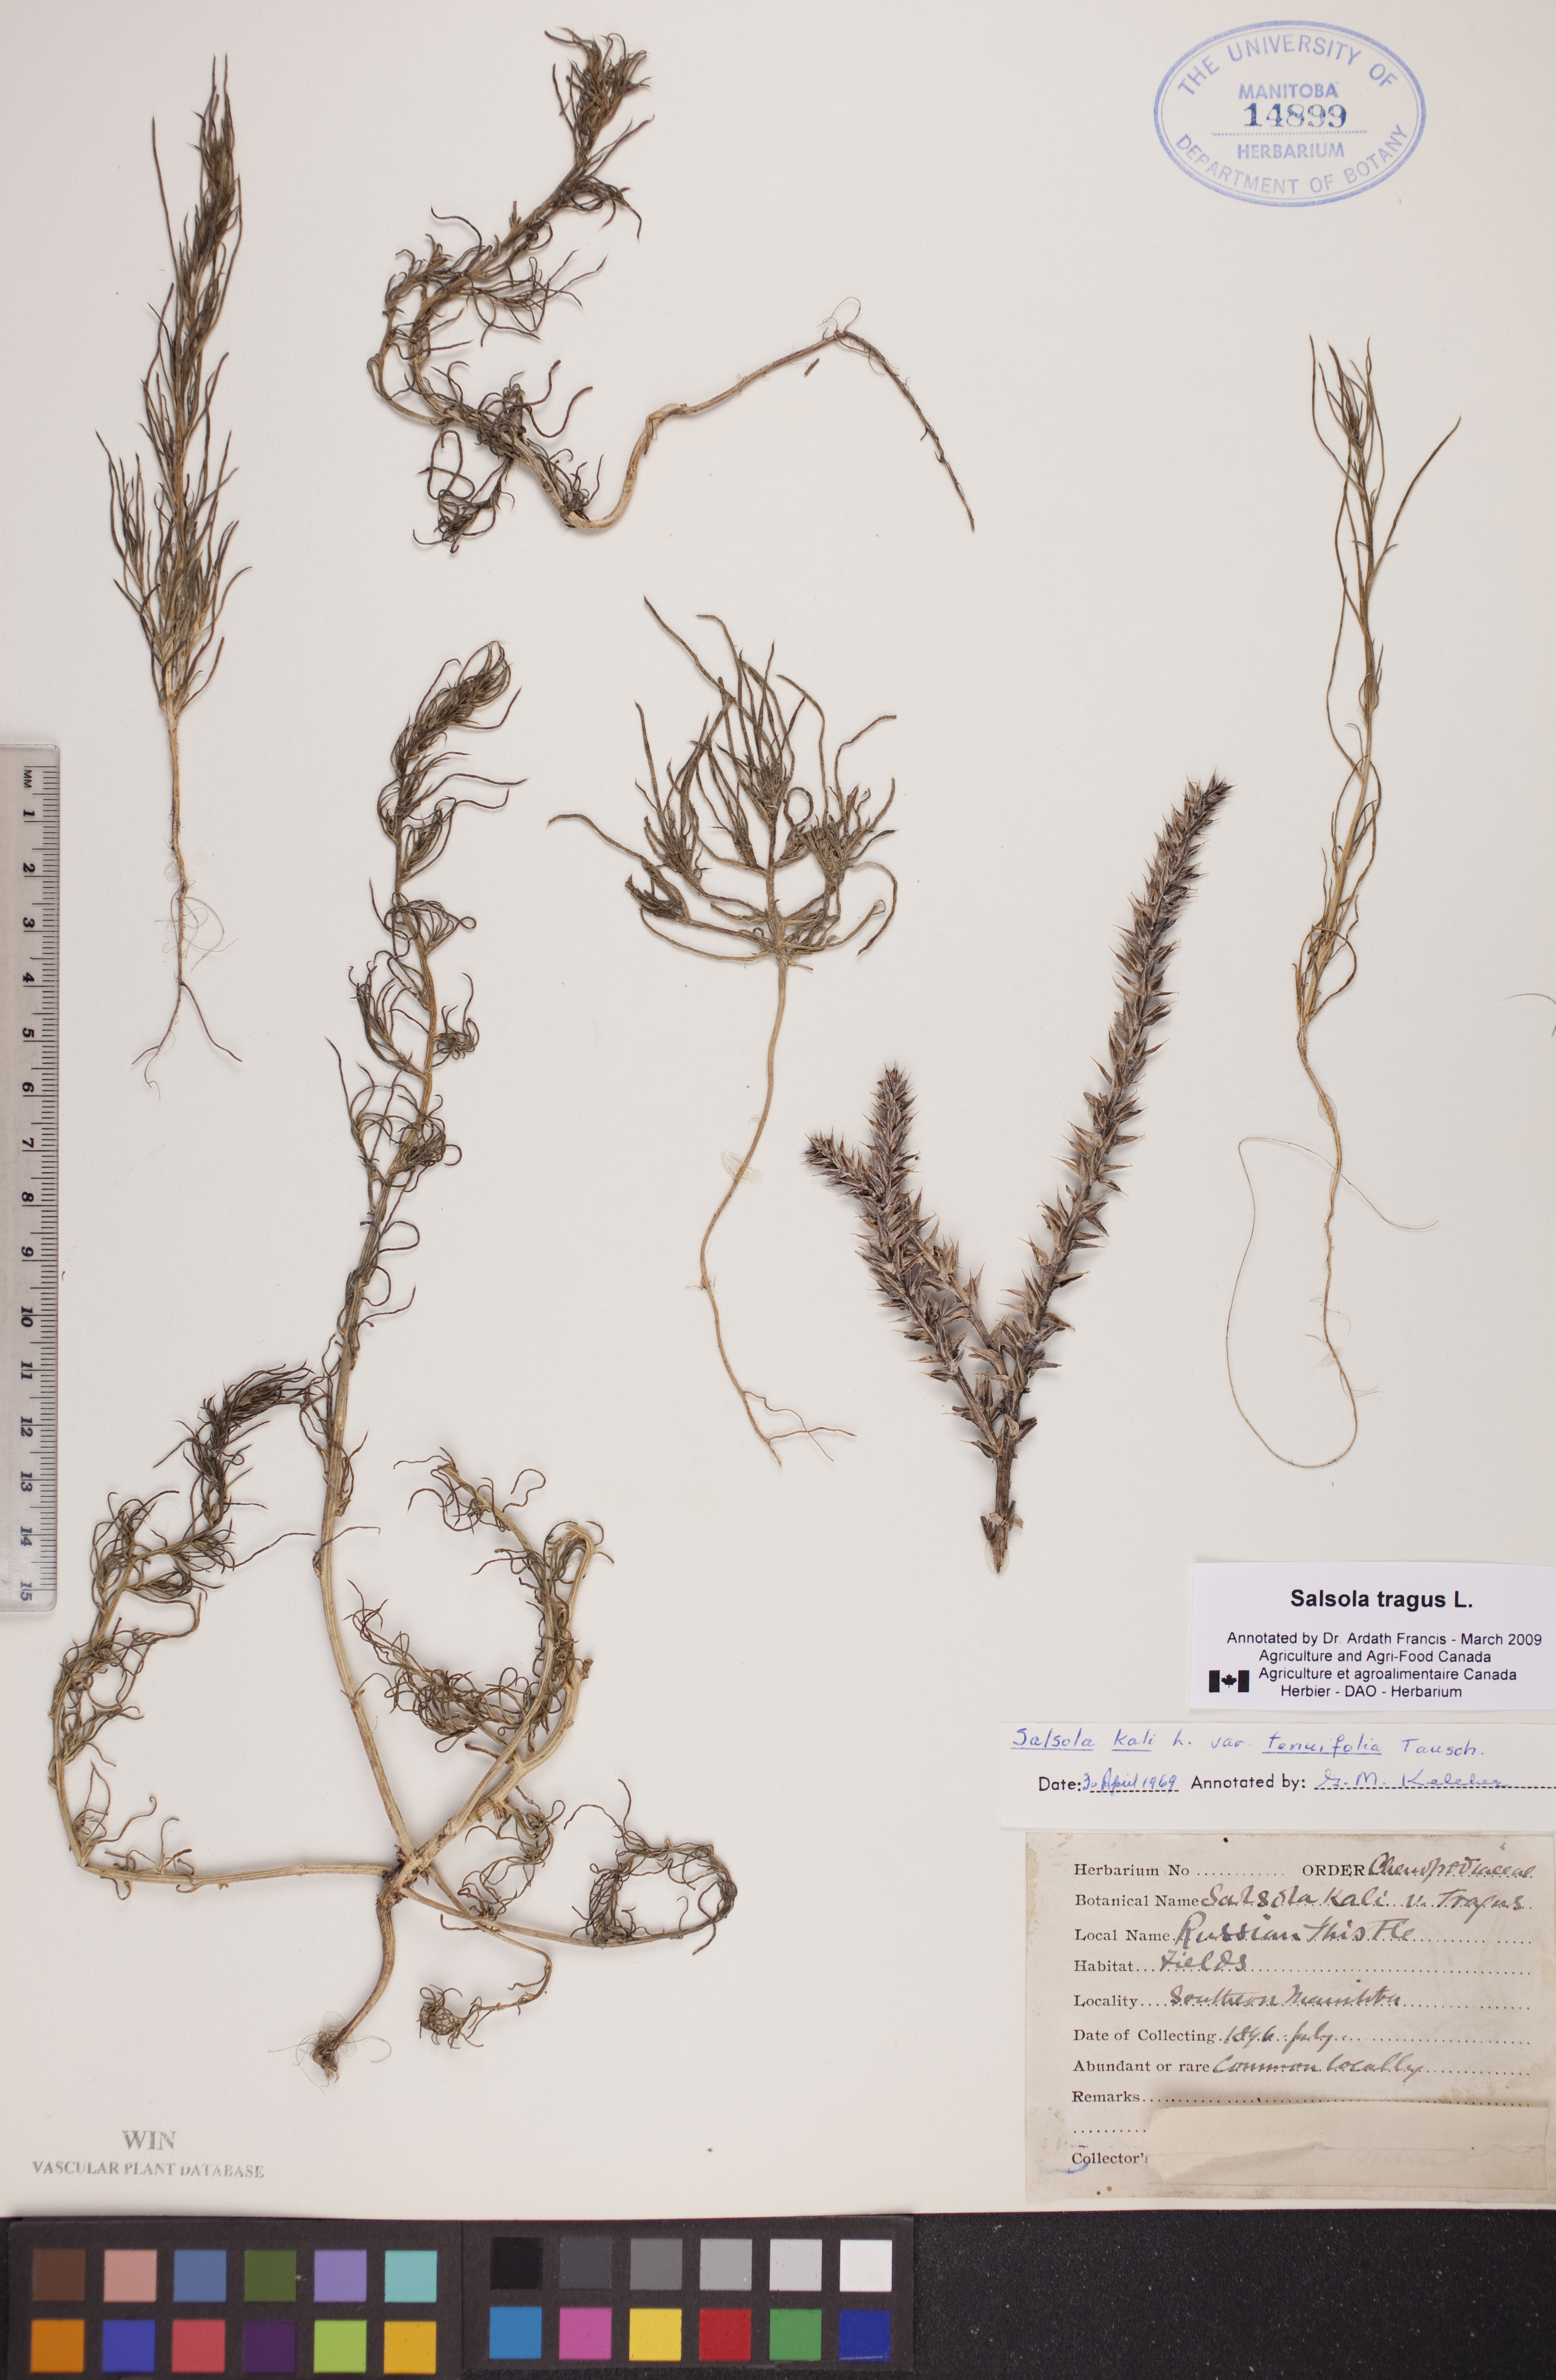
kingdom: Plantae
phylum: Tracheophyta
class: Magnoliopsida
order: Caryophyllales
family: Amaranthaceae
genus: Salsola
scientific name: Salsola tragus
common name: Prickly russian thistle
